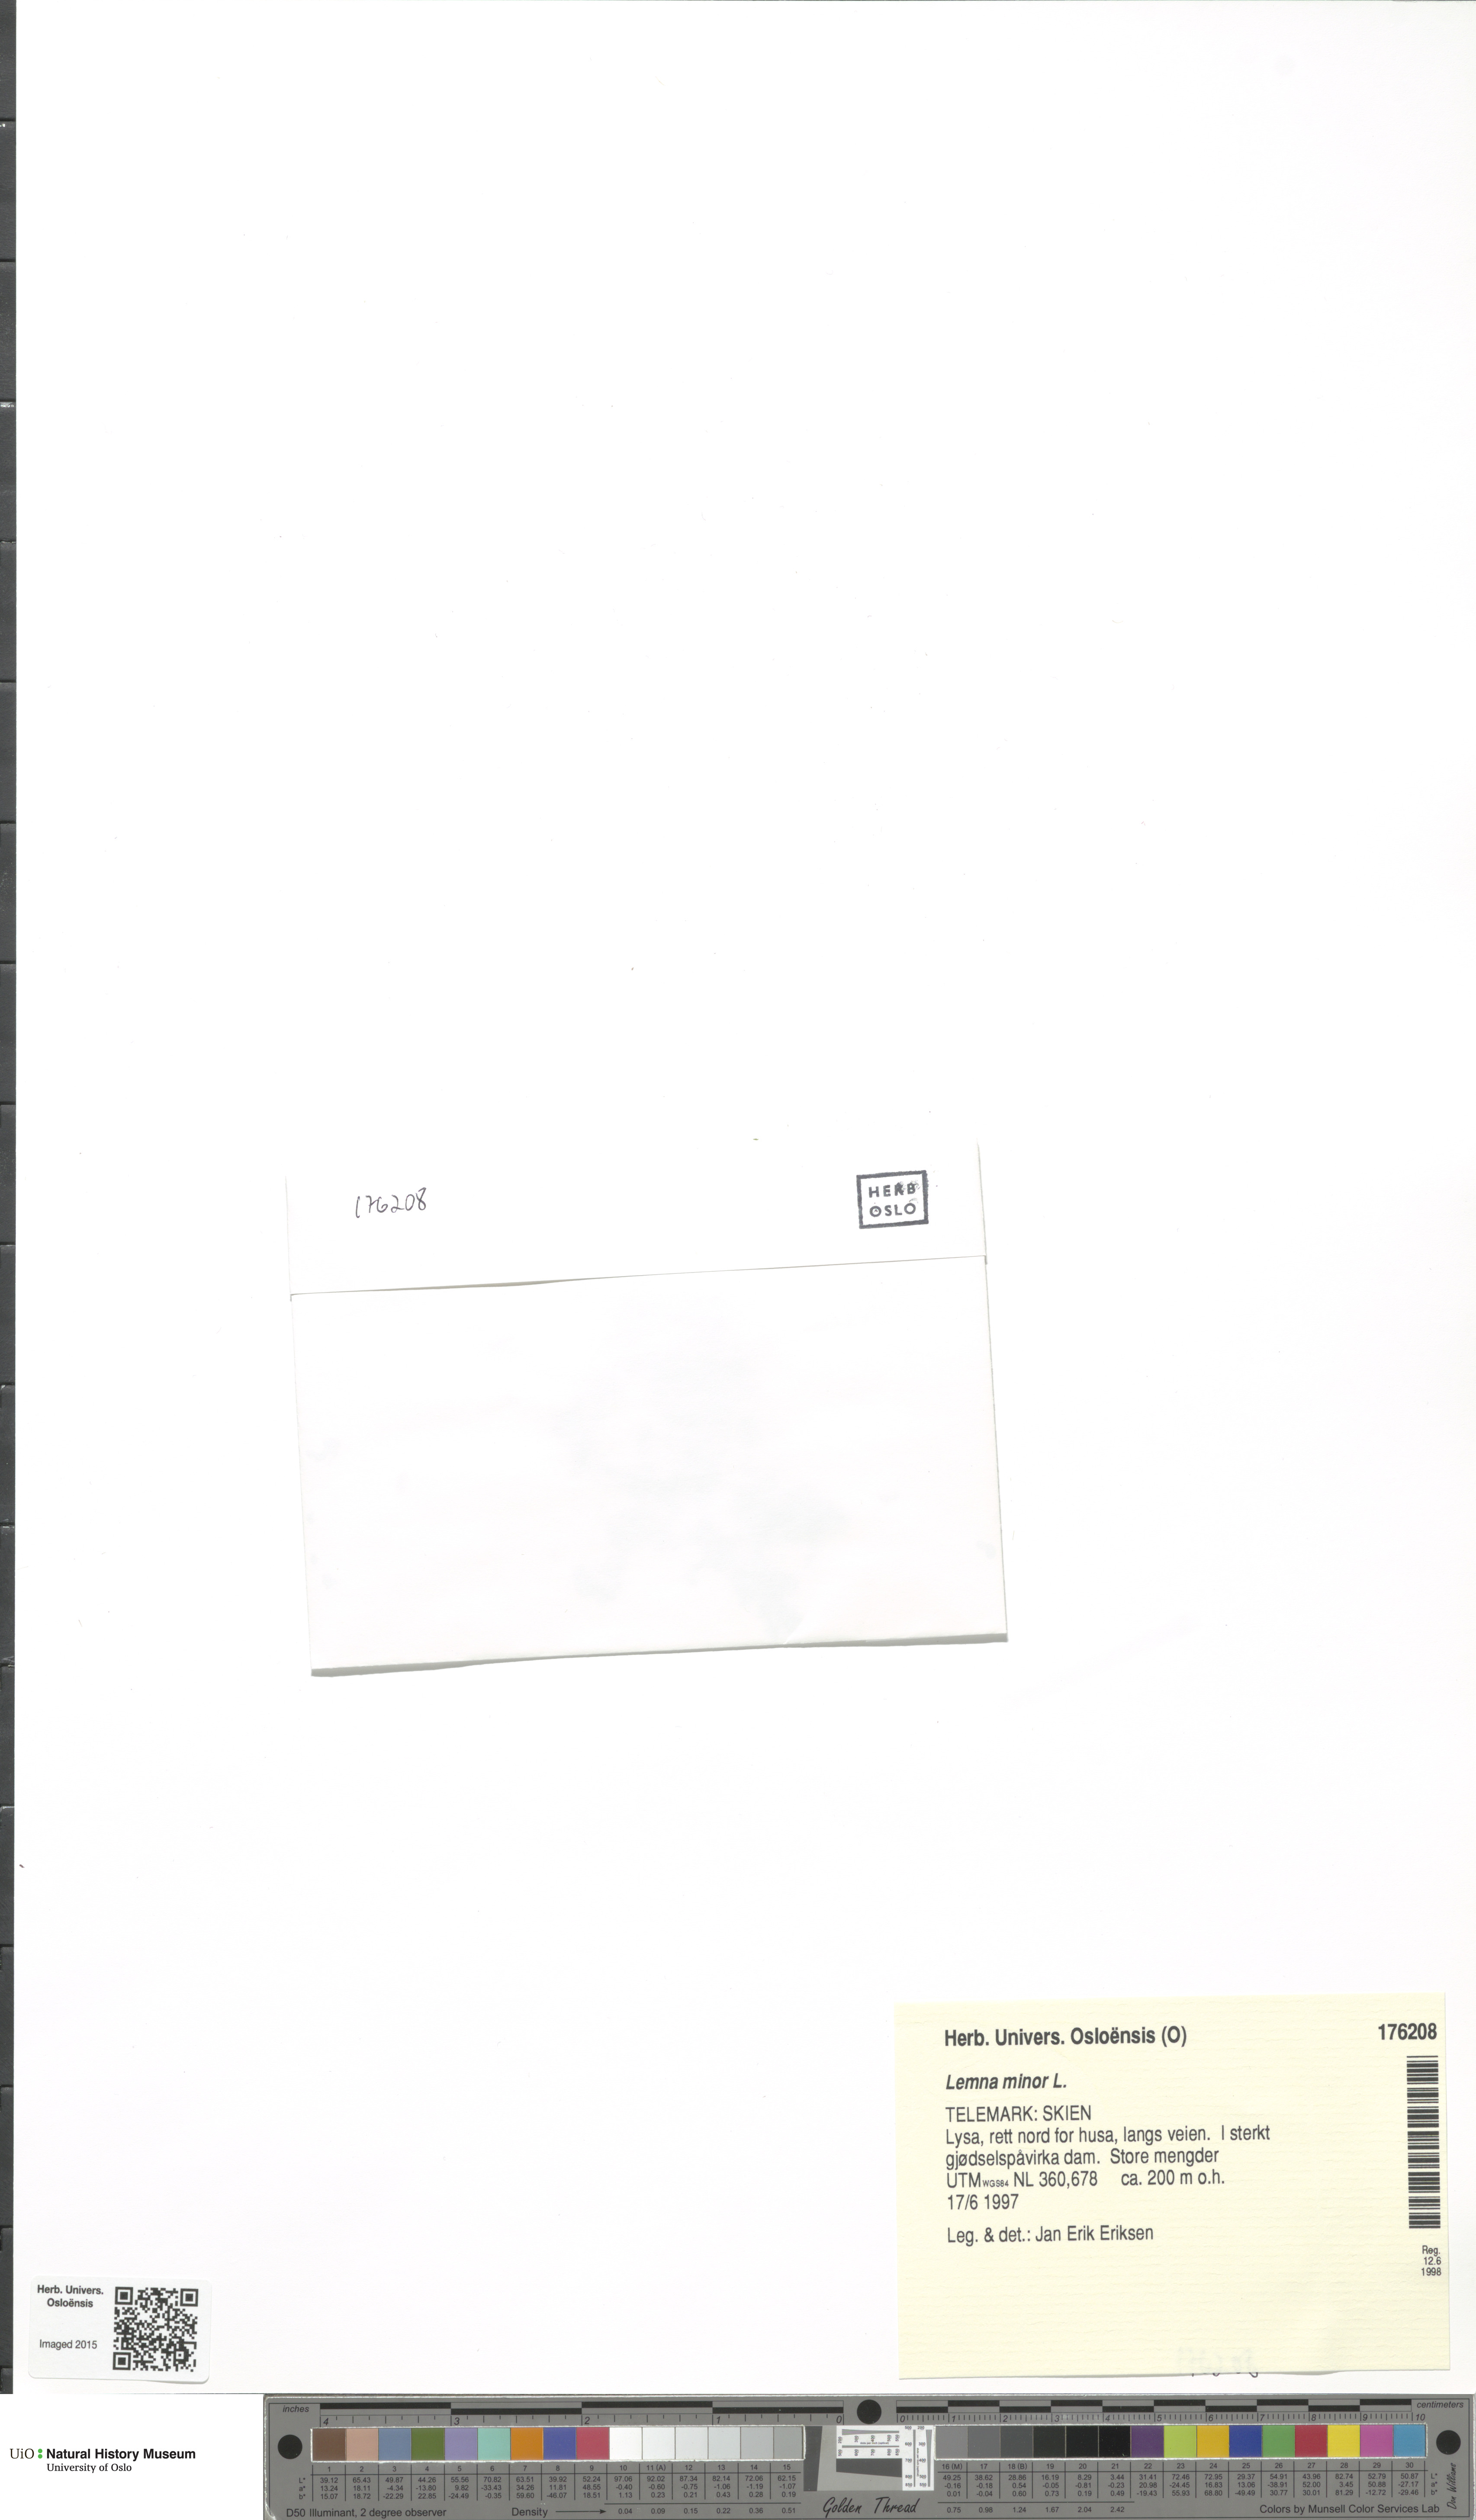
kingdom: Plantae
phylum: Tracheophyta
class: Liliopsida
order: Alismatales
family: Araceae
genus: Lemna
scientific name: Lemna minor
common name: Common duckweed
